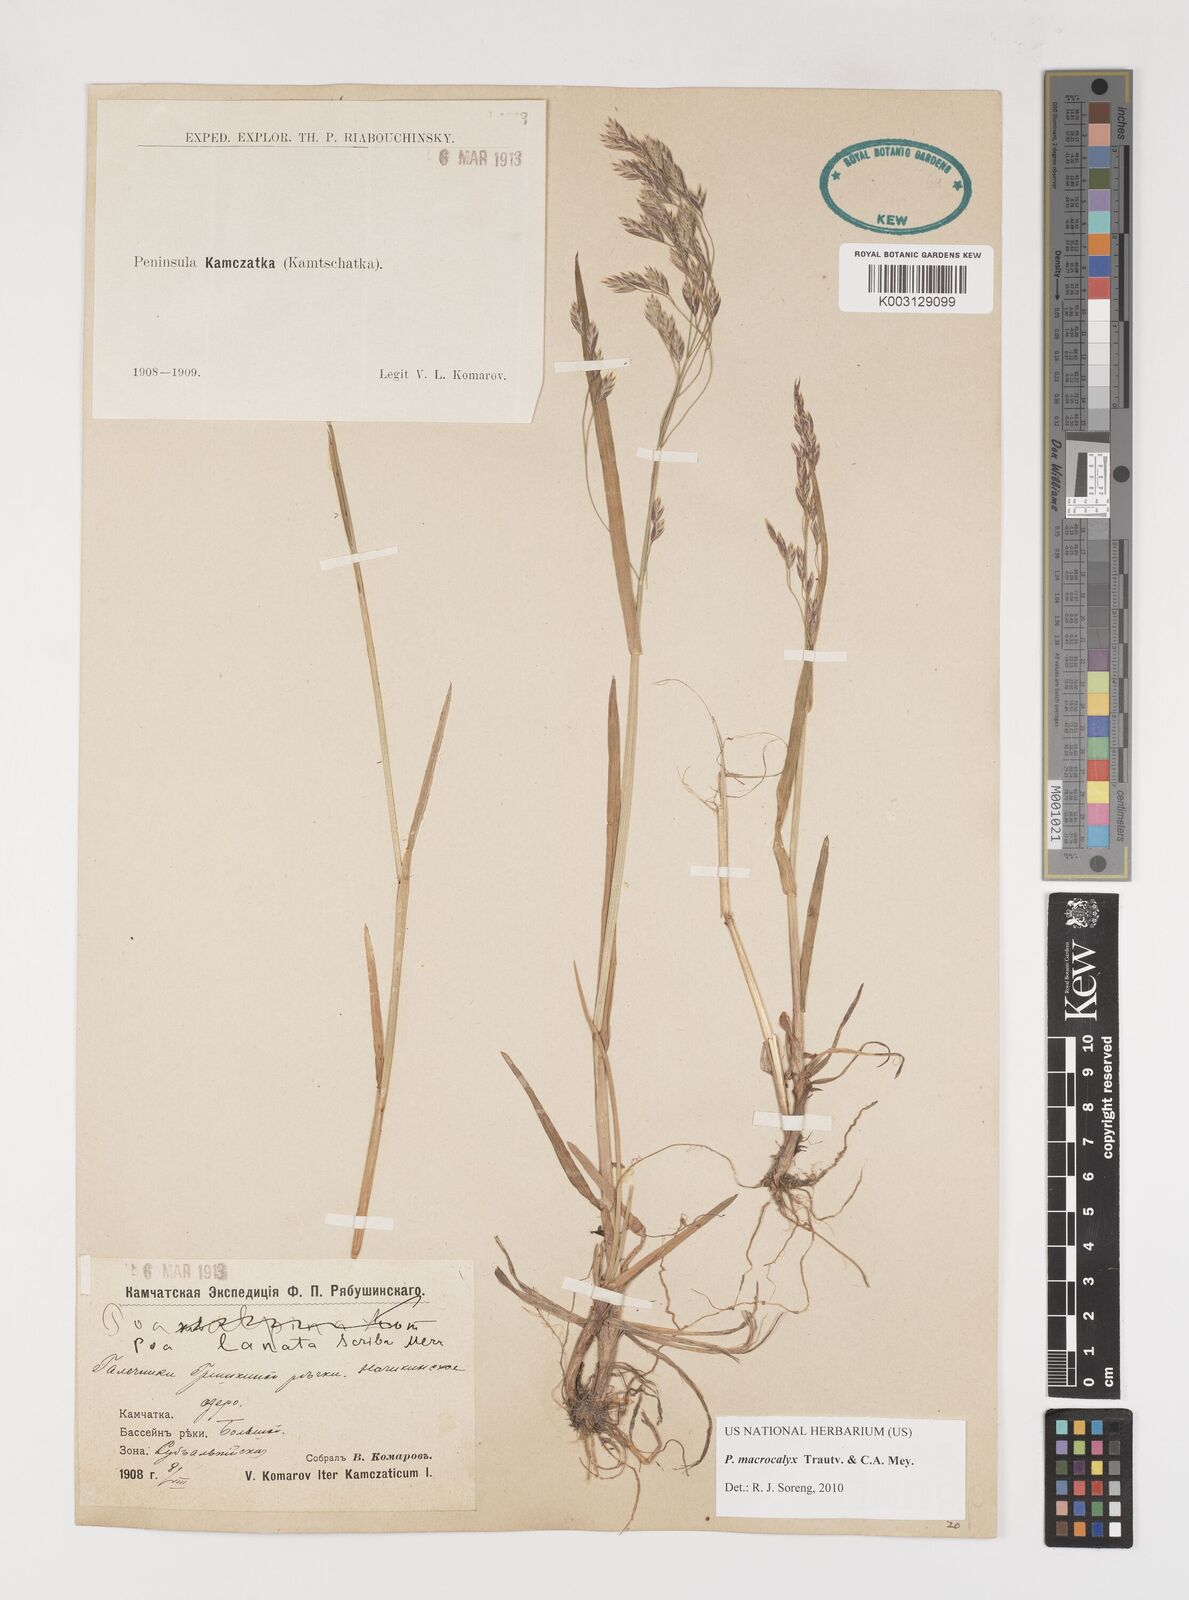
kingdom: Plantae
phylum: Tracheophyta
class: Liliopsida
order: Poales
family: Poaceae
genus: Poa
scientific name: Poa macrocalyx
